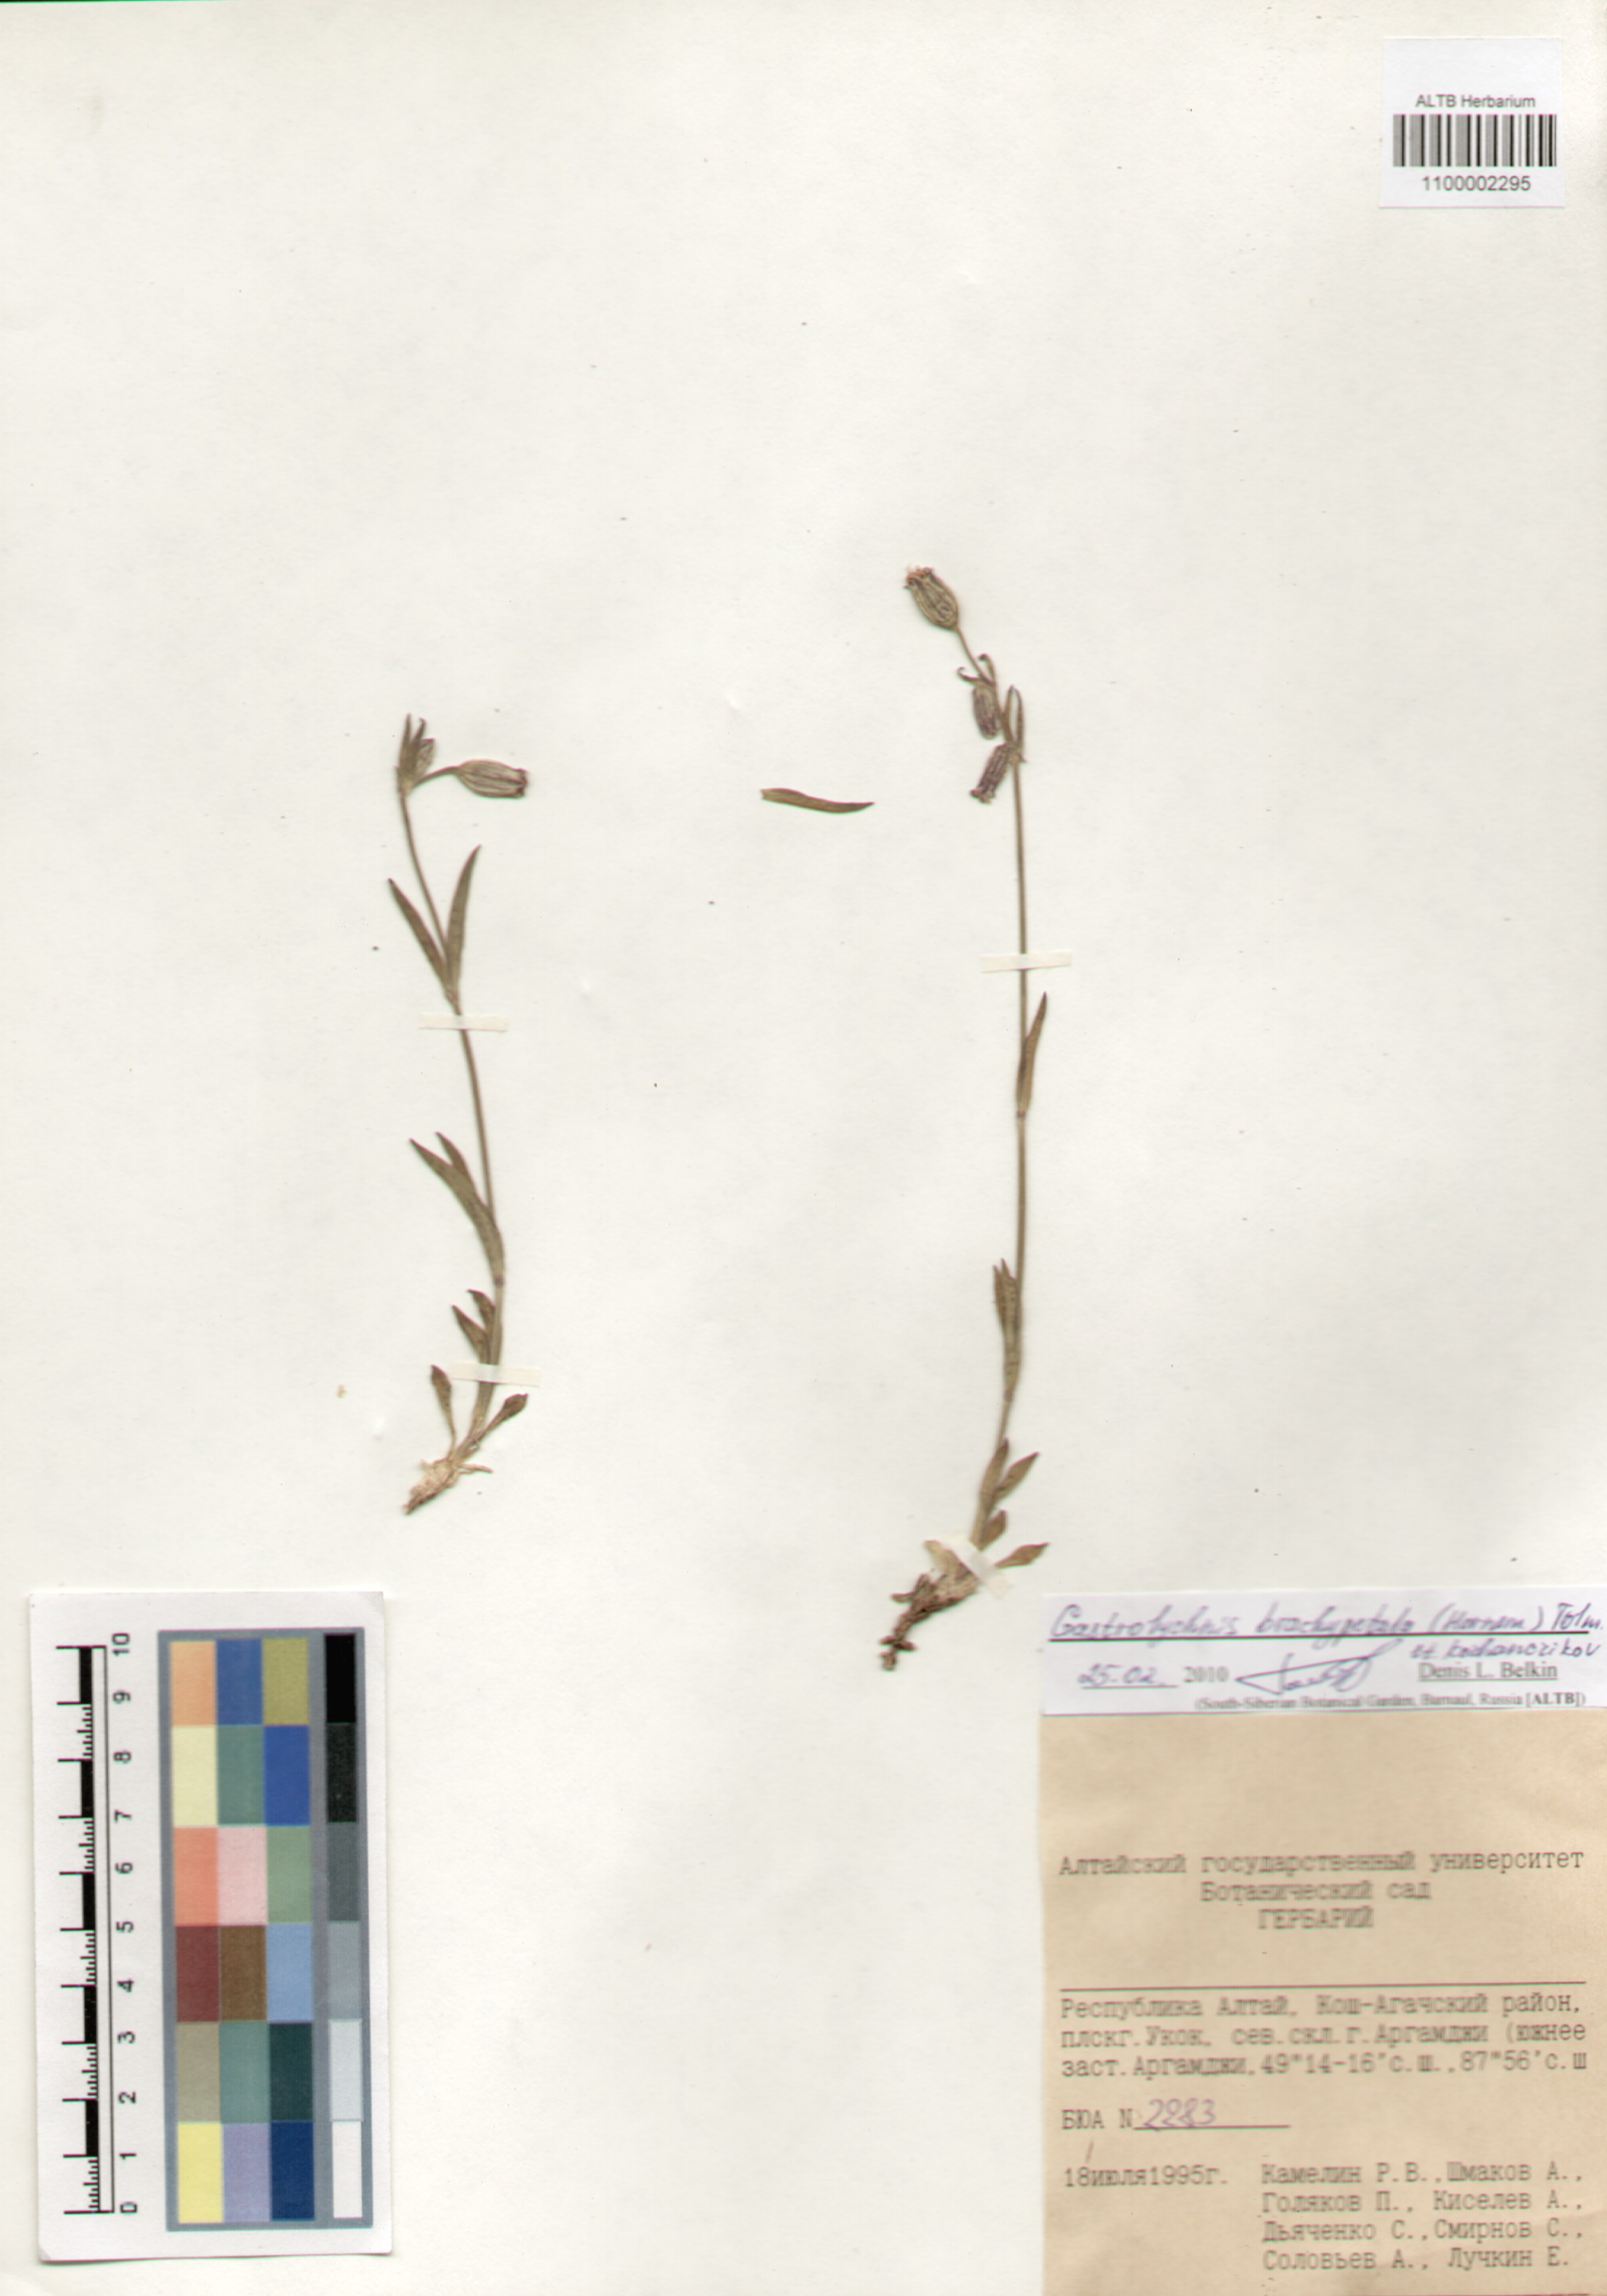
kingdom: Plantae
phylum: Tracheophyta
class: Magnoliopsida
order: Caryophyllales
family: Caryophyllaceae
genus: Silene
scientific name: Silene songarica
